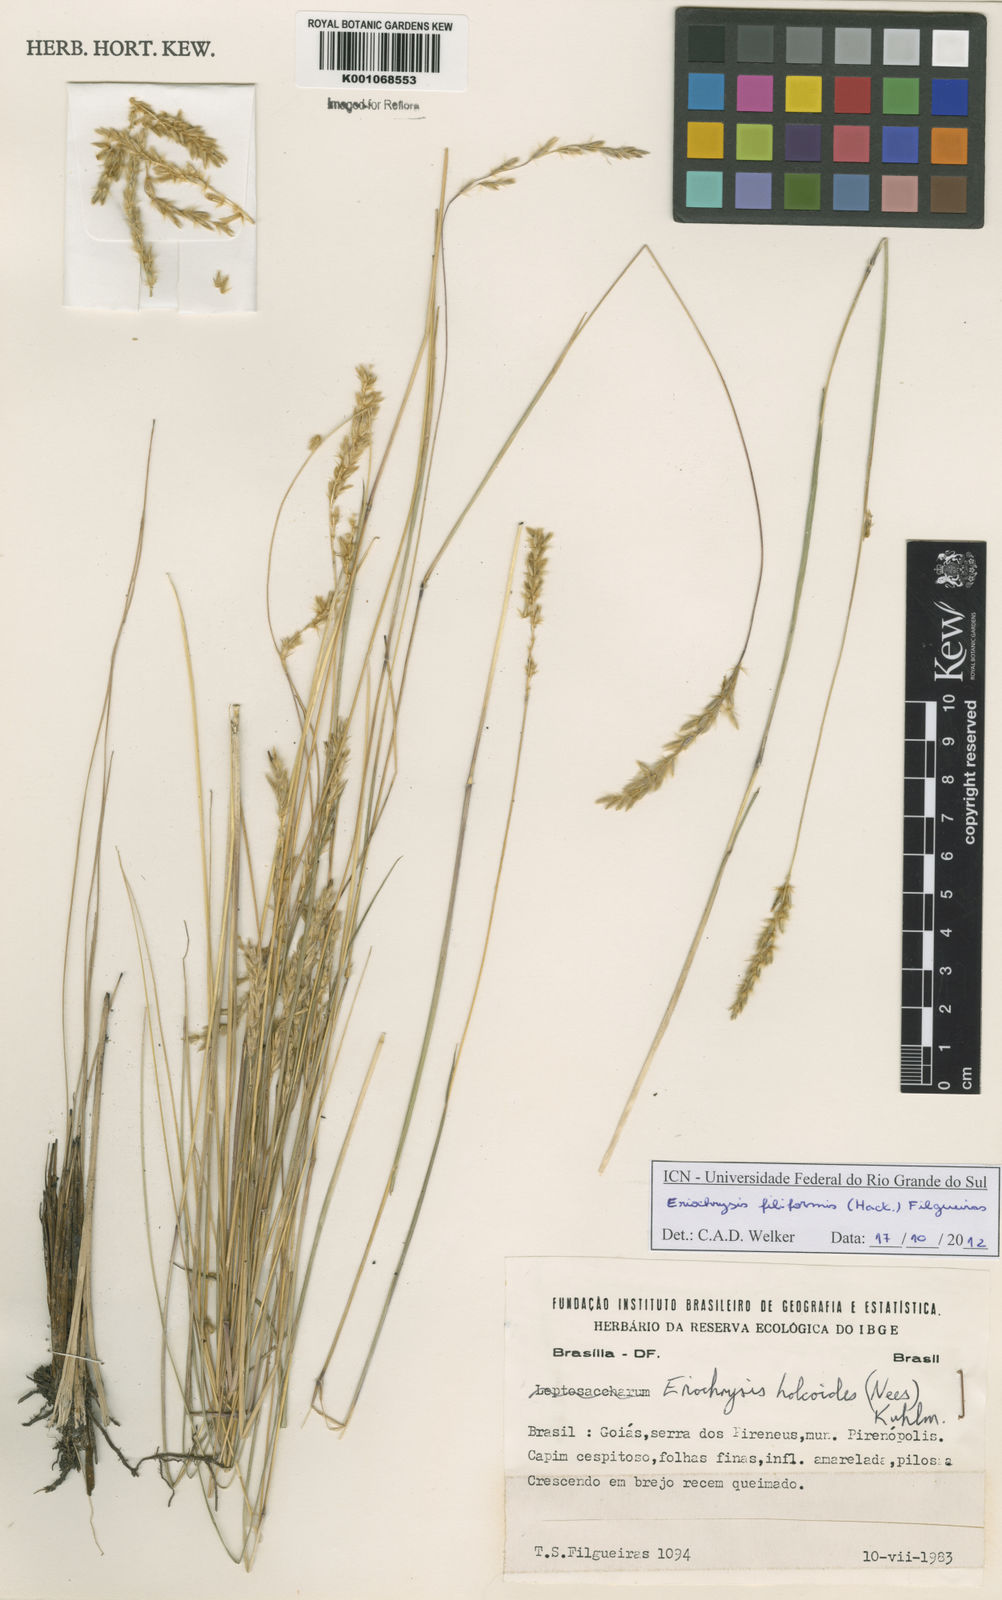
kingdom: Plantae
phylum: Tracheophyta
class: Liliopsida
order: Poales
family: Poaceae
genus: Eriochrysis
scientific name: Eriochrysis filiformis
